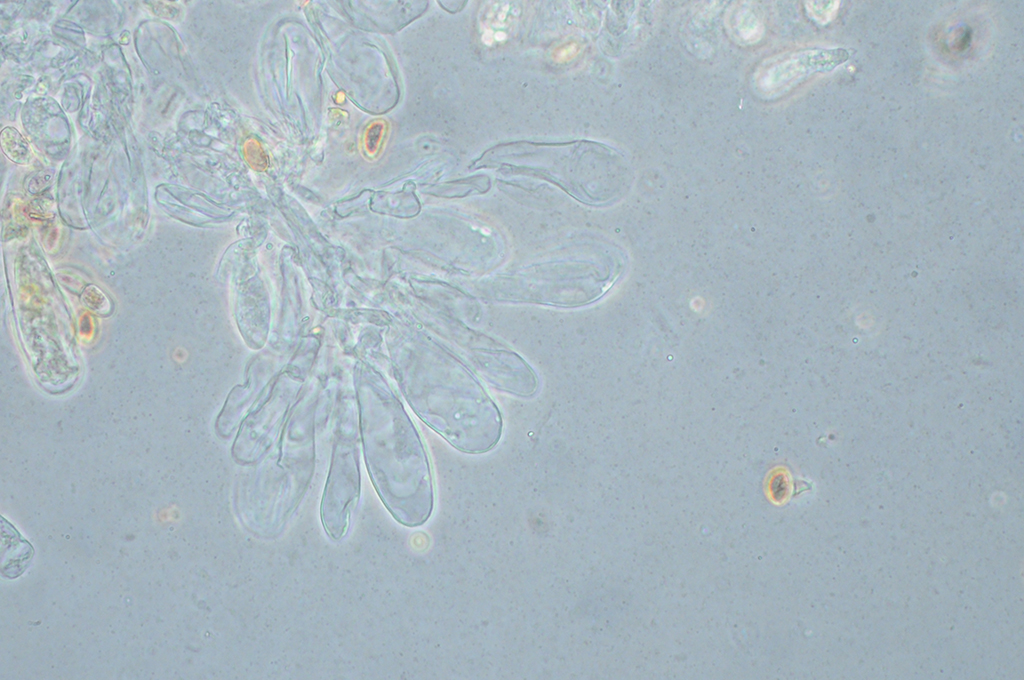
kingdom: Fungi
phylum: Basidiomycota
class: Agaricomycetes
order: Agaricales
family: Inocybaceae
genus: Pseudosperma
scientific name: Pseudosperma rimosum
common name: gulbladet trævlhat
